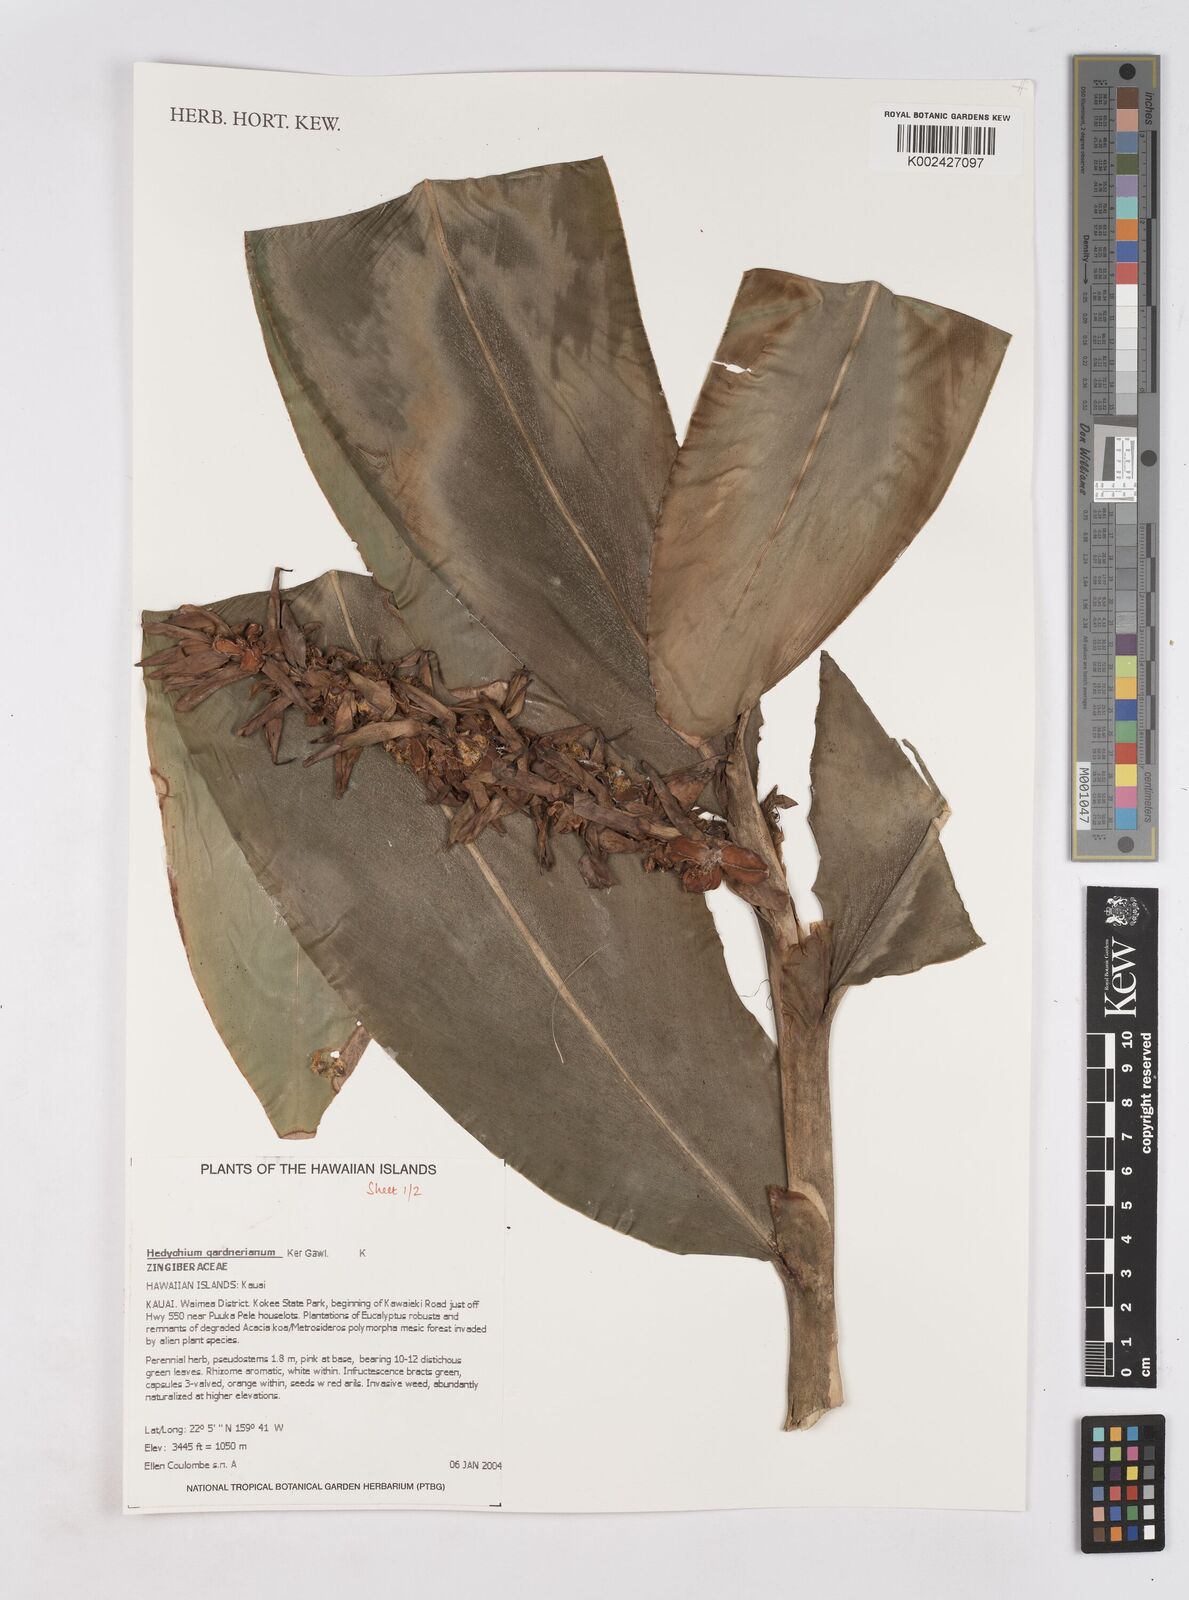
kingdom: Plantae
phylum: Tracheophyta
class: Liliopsida
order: Zingiberales
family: Zingiberaceae
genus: Hedychium
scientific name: Hedychium gardnerianum
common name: Himalayan ginger
